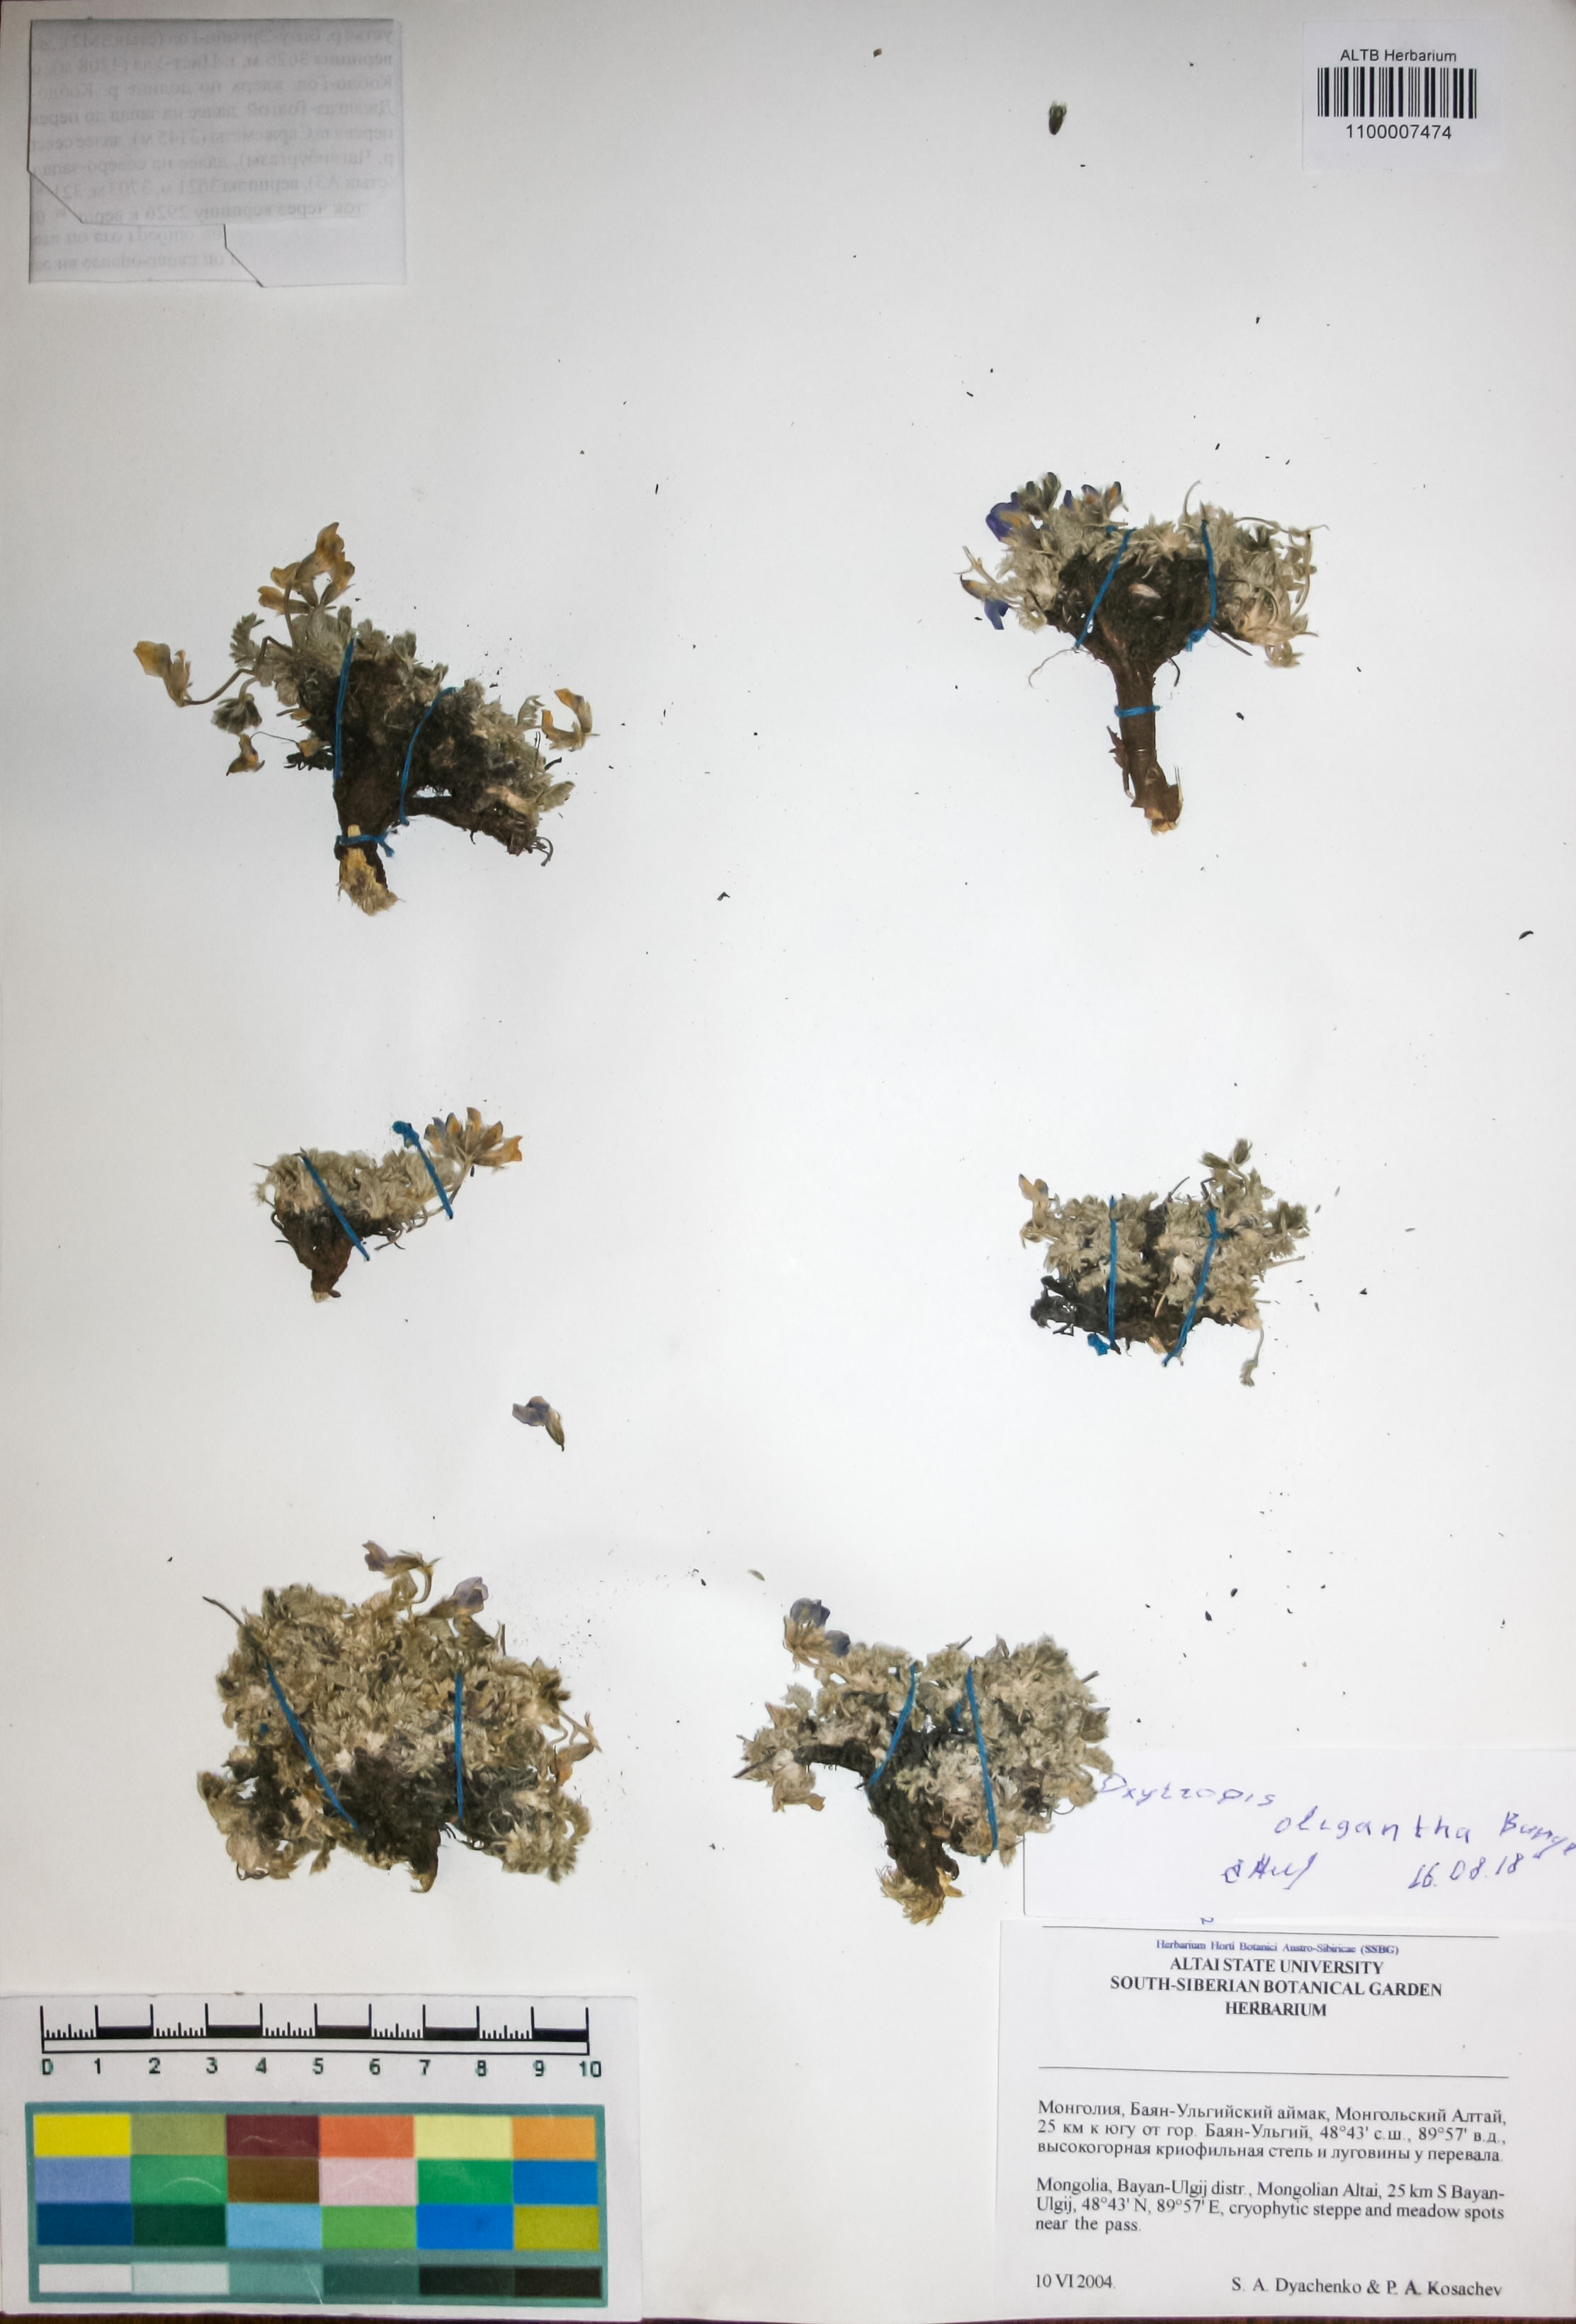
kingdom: Plantae
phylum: Tracheophyta
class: Magnoliopsida
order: Fabales
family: Fabaceae
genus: Oxytropis
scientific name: Oxytropis
